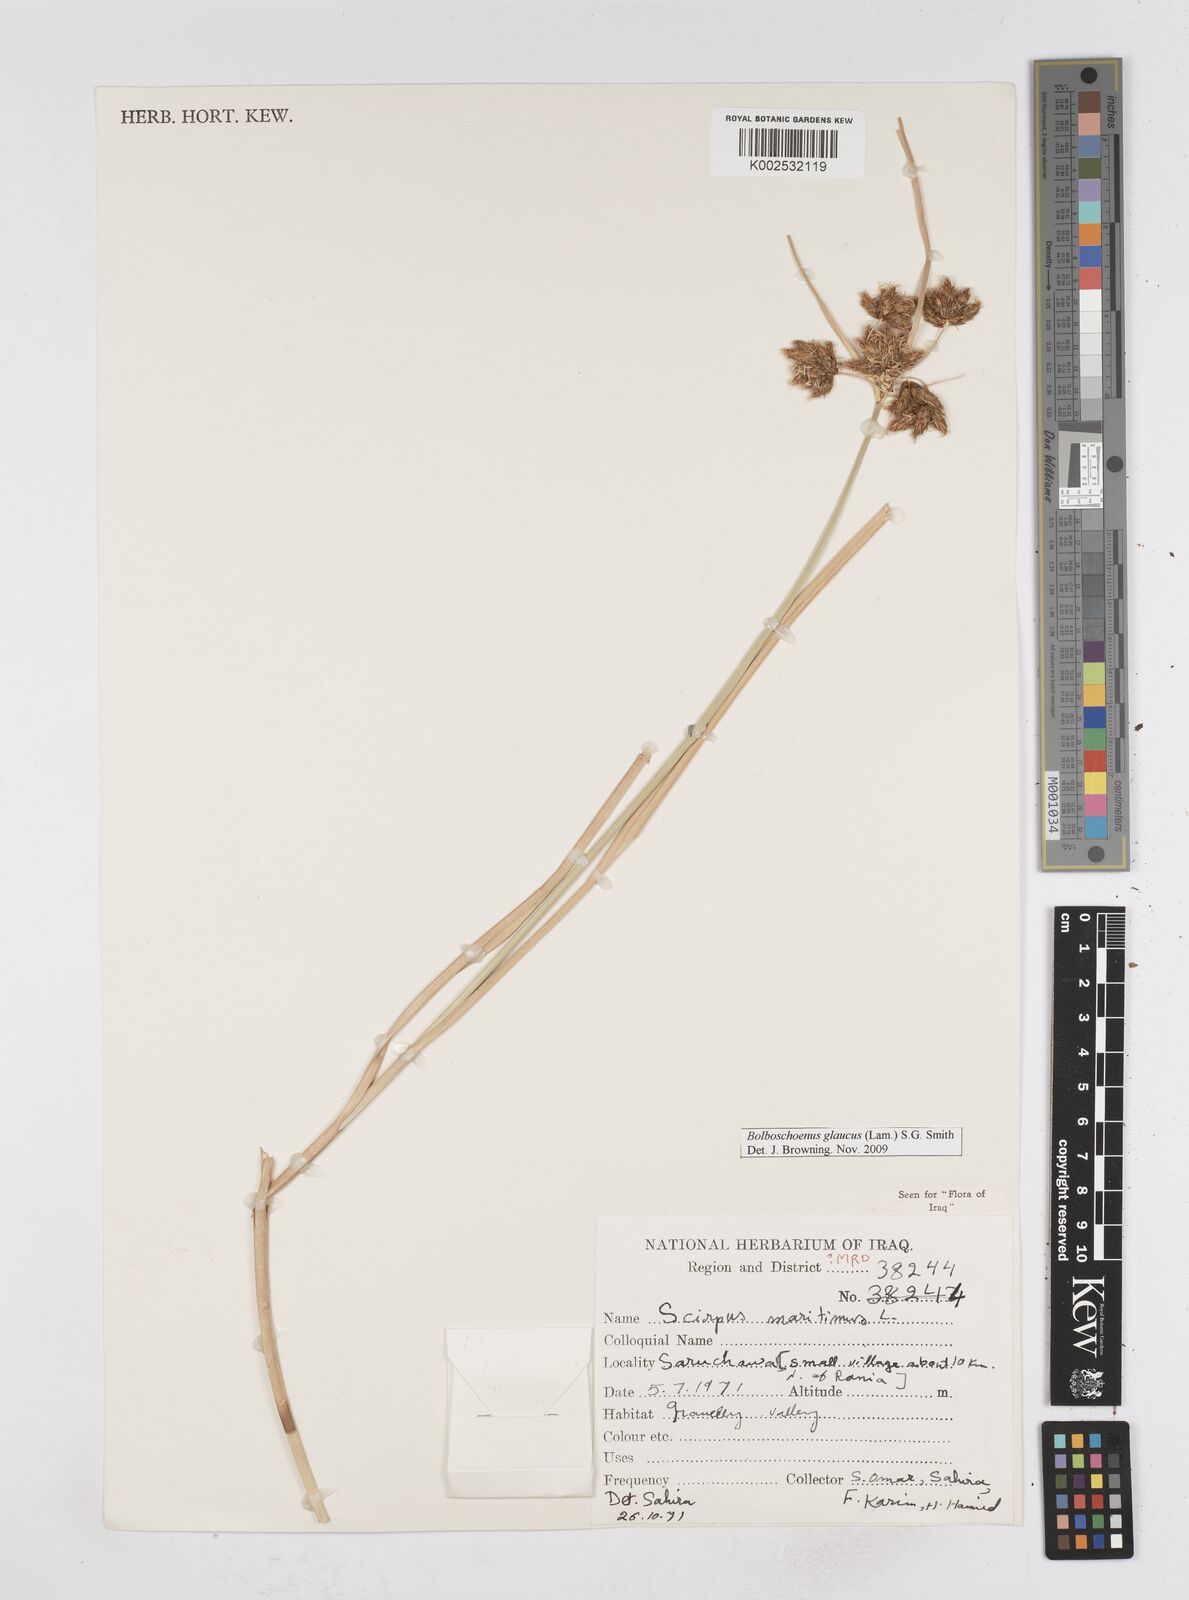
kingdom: Plantae
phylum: Tracheophyta
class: Liliopsida
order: Poales
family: Cyperaceae
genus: Bolboschoenus
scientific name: Bolboschoenus maritimus
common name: Sea club-rush
